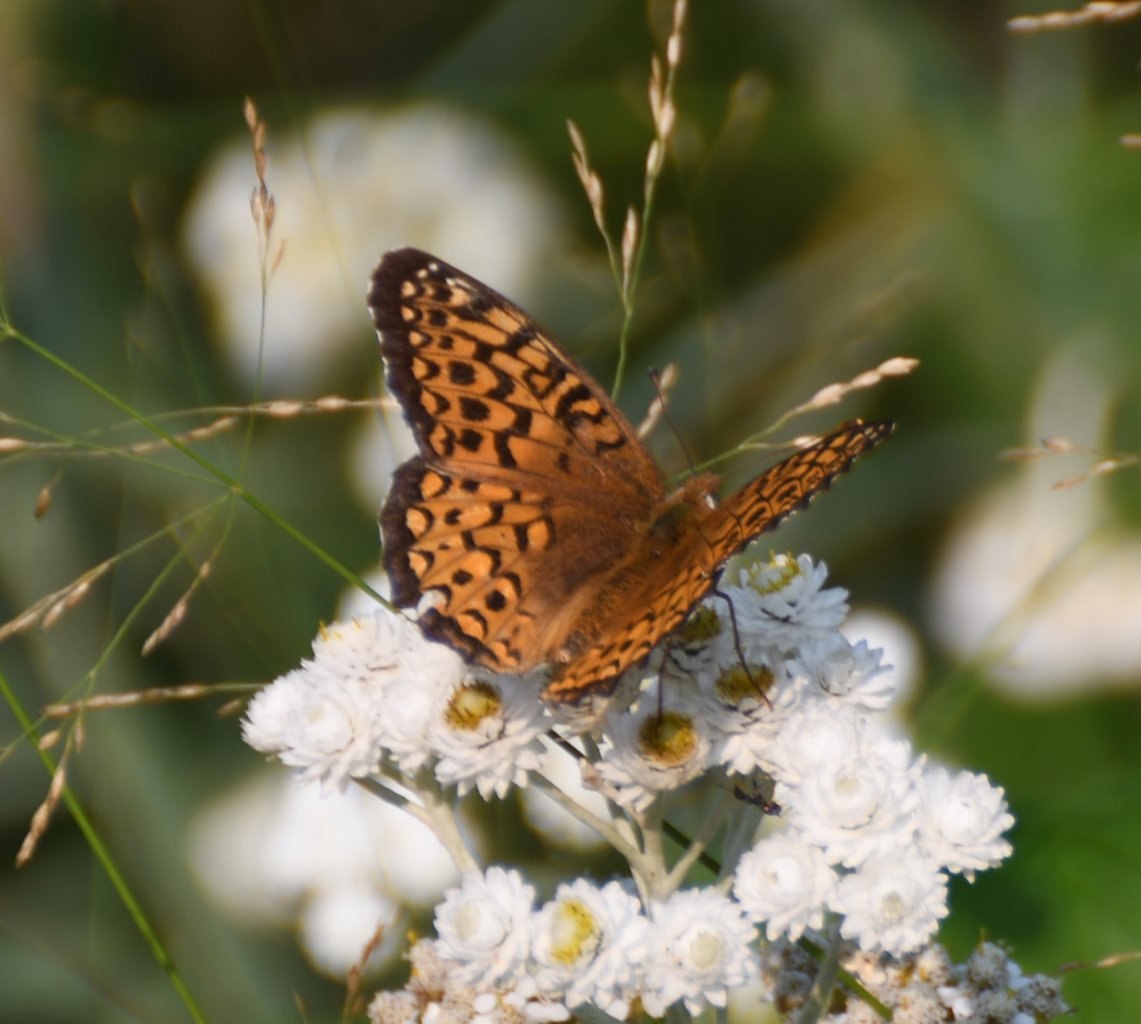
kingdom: Animalia
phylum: Arthropoda
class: Insecta
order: Lepidoptera
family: Nymphalidae
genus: Speyeria
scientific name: Speyeria atlantis
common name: Atlantis Fritillary
